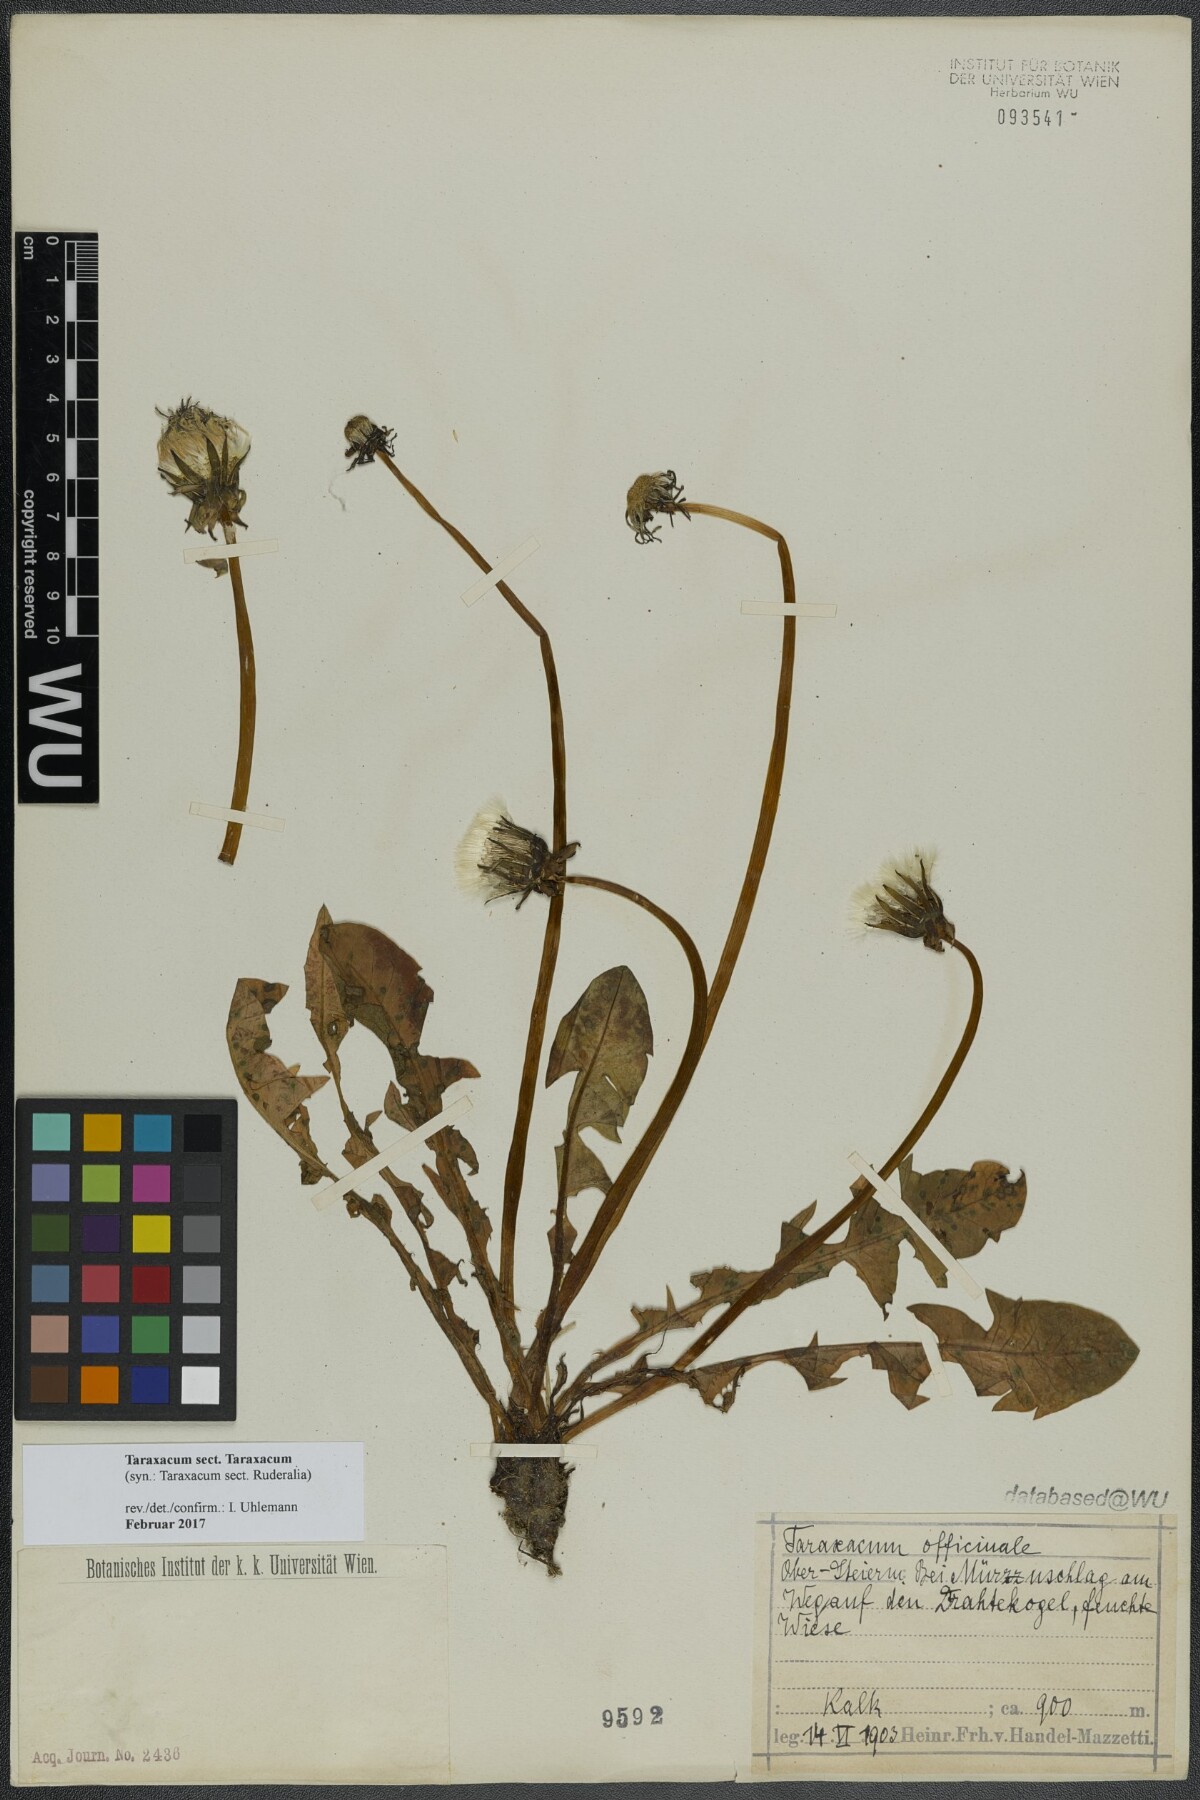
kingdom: Plantae
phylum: Tracheophyta
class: Magnoliopsida
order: Asterales
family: Asteraceae
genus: Taraxacum
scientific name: Taraxacum
